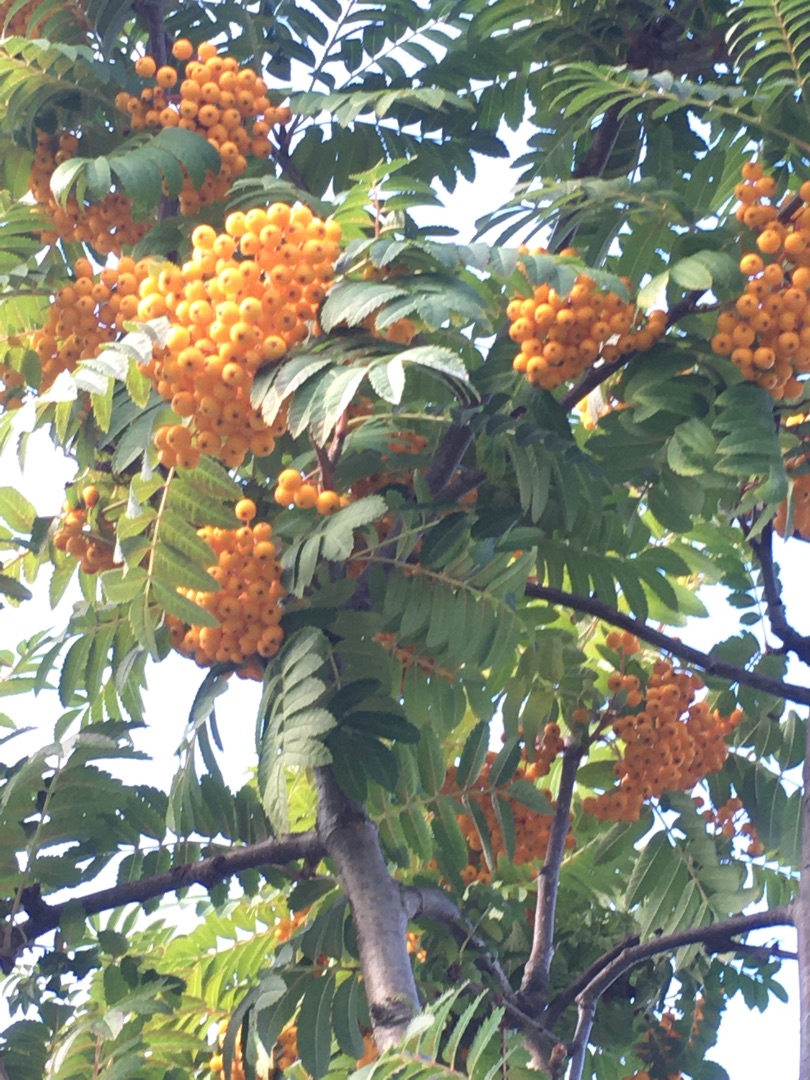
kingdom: Plantae
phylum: Tracheophyta
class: Magnoliopsida
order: Rosales
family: Rosaceae
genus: Sorbus
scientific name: Sorbus aucuparia
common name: Almindelig røn
